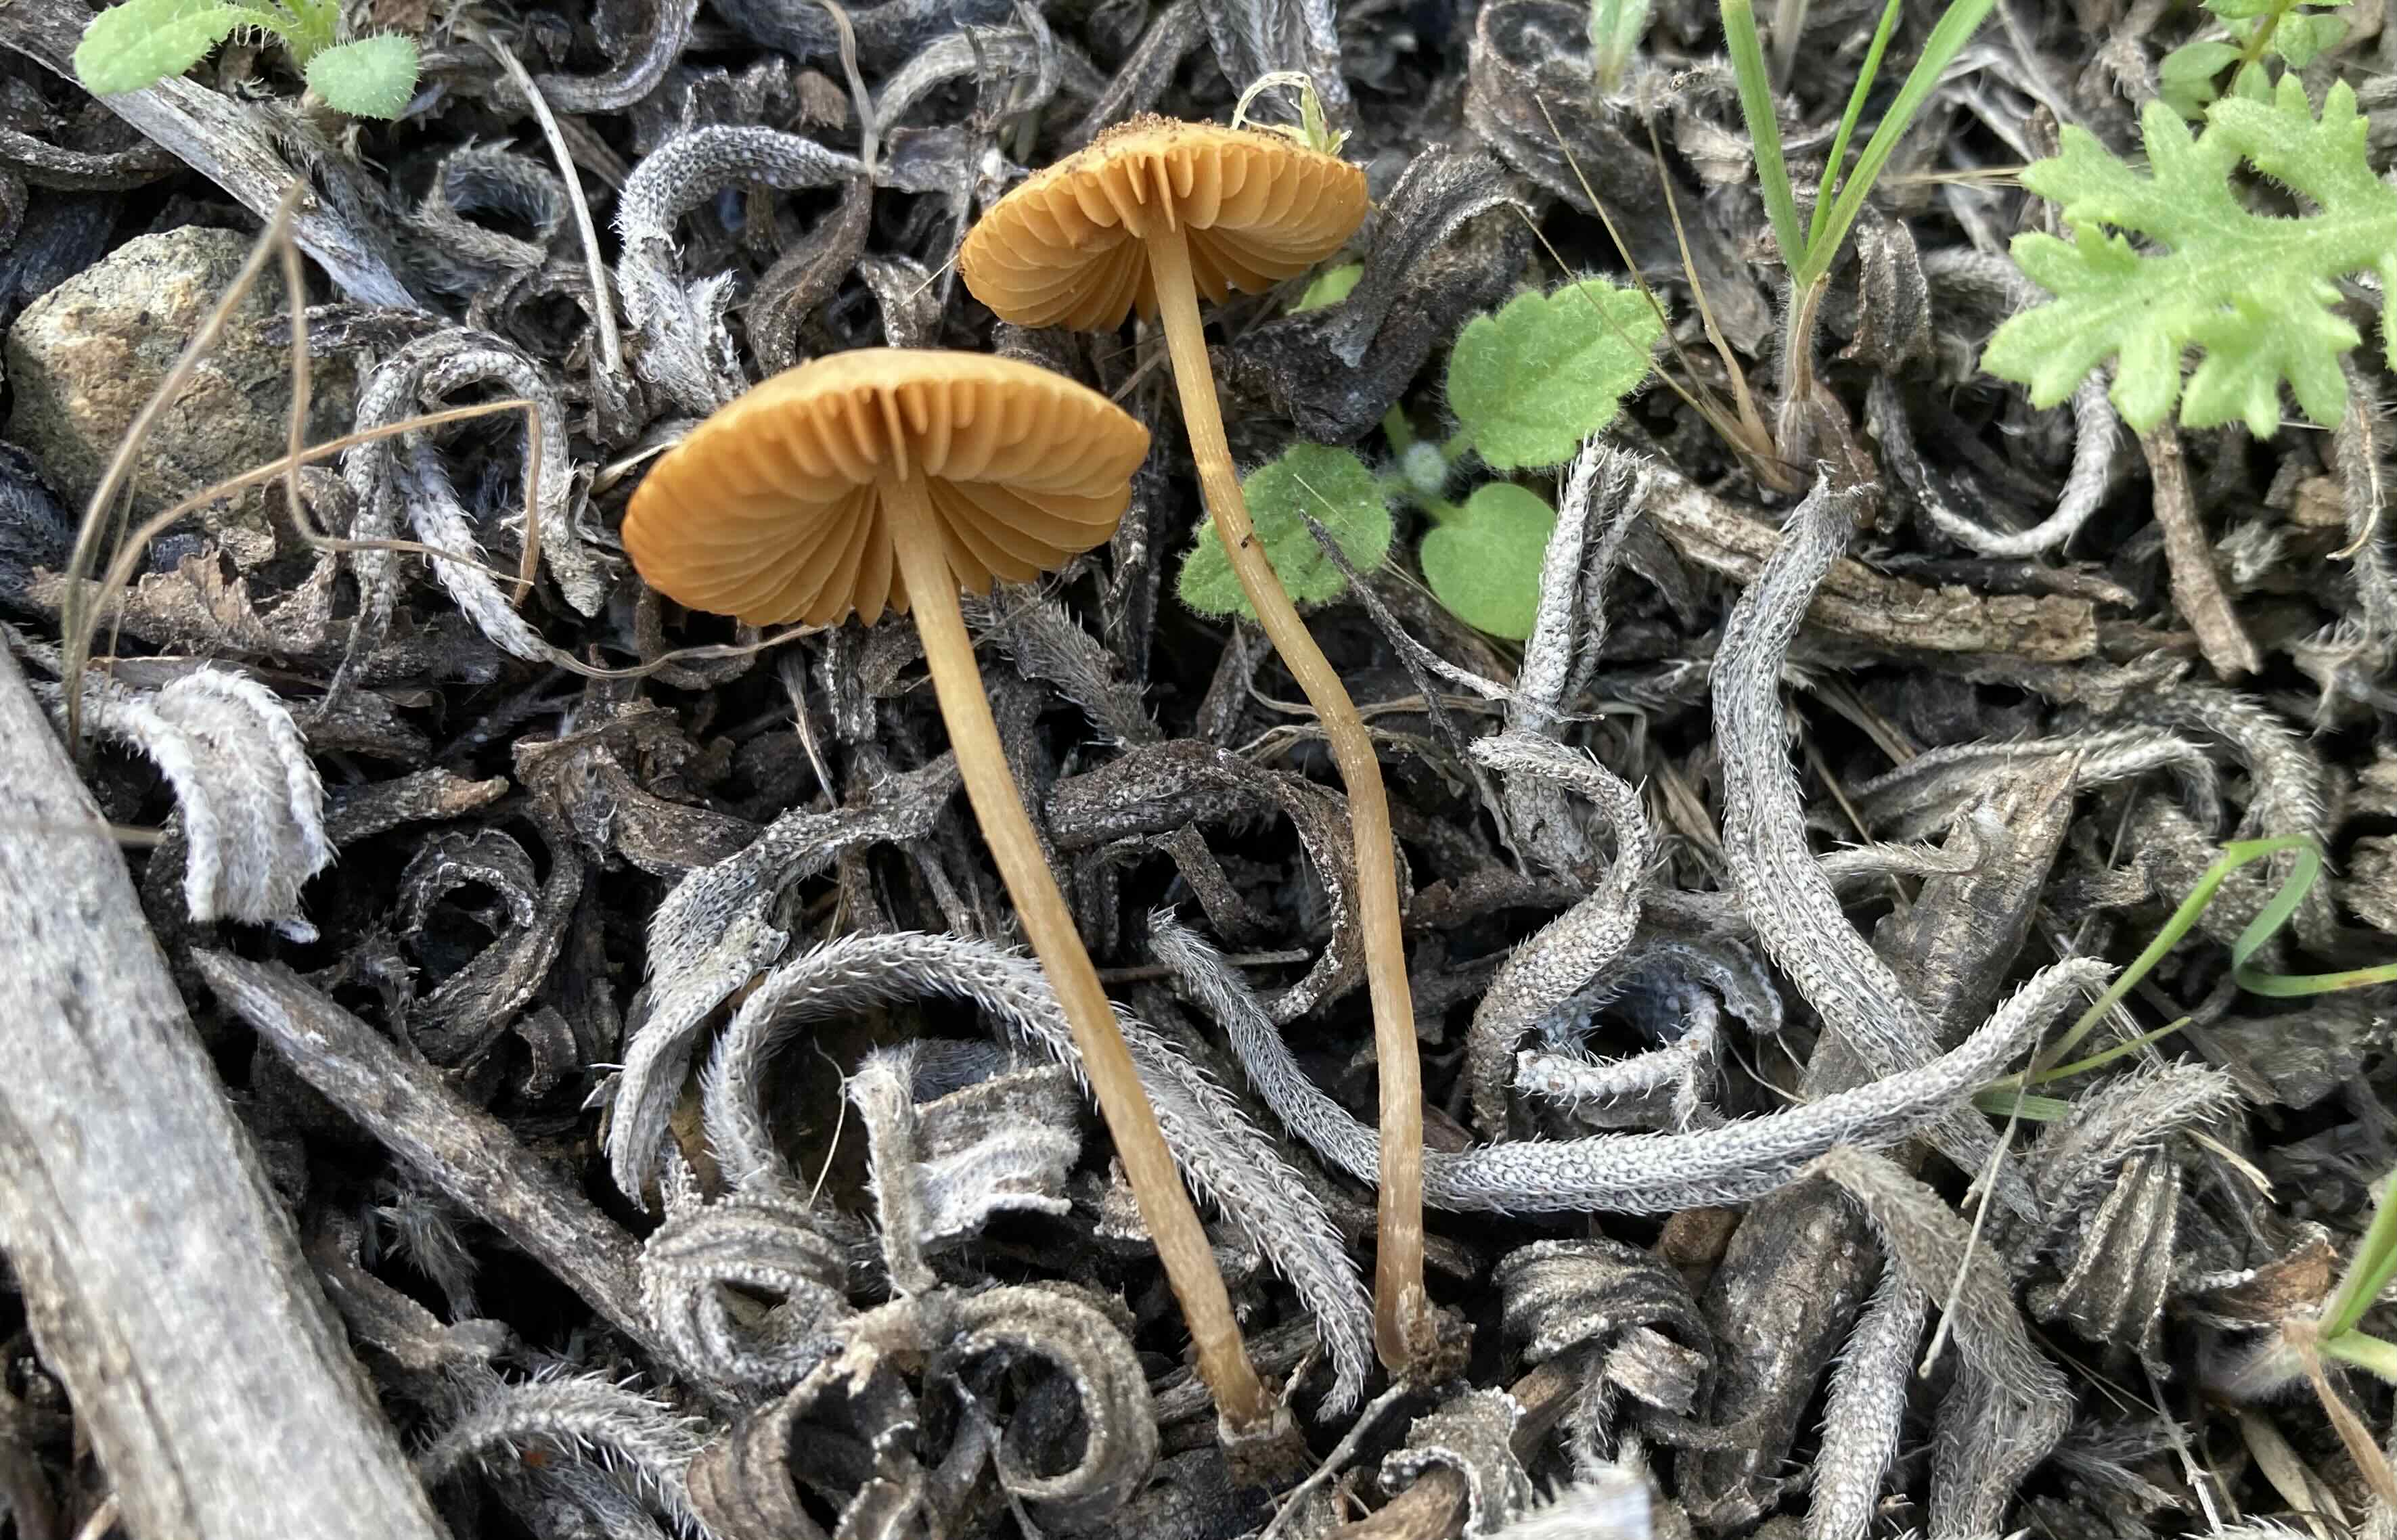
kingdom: Fungi
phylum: Basidiomycota
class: Agaricomycetes
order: Agaricales
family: Bolbitiaceae
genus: Conocybe
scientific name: Conocybe
